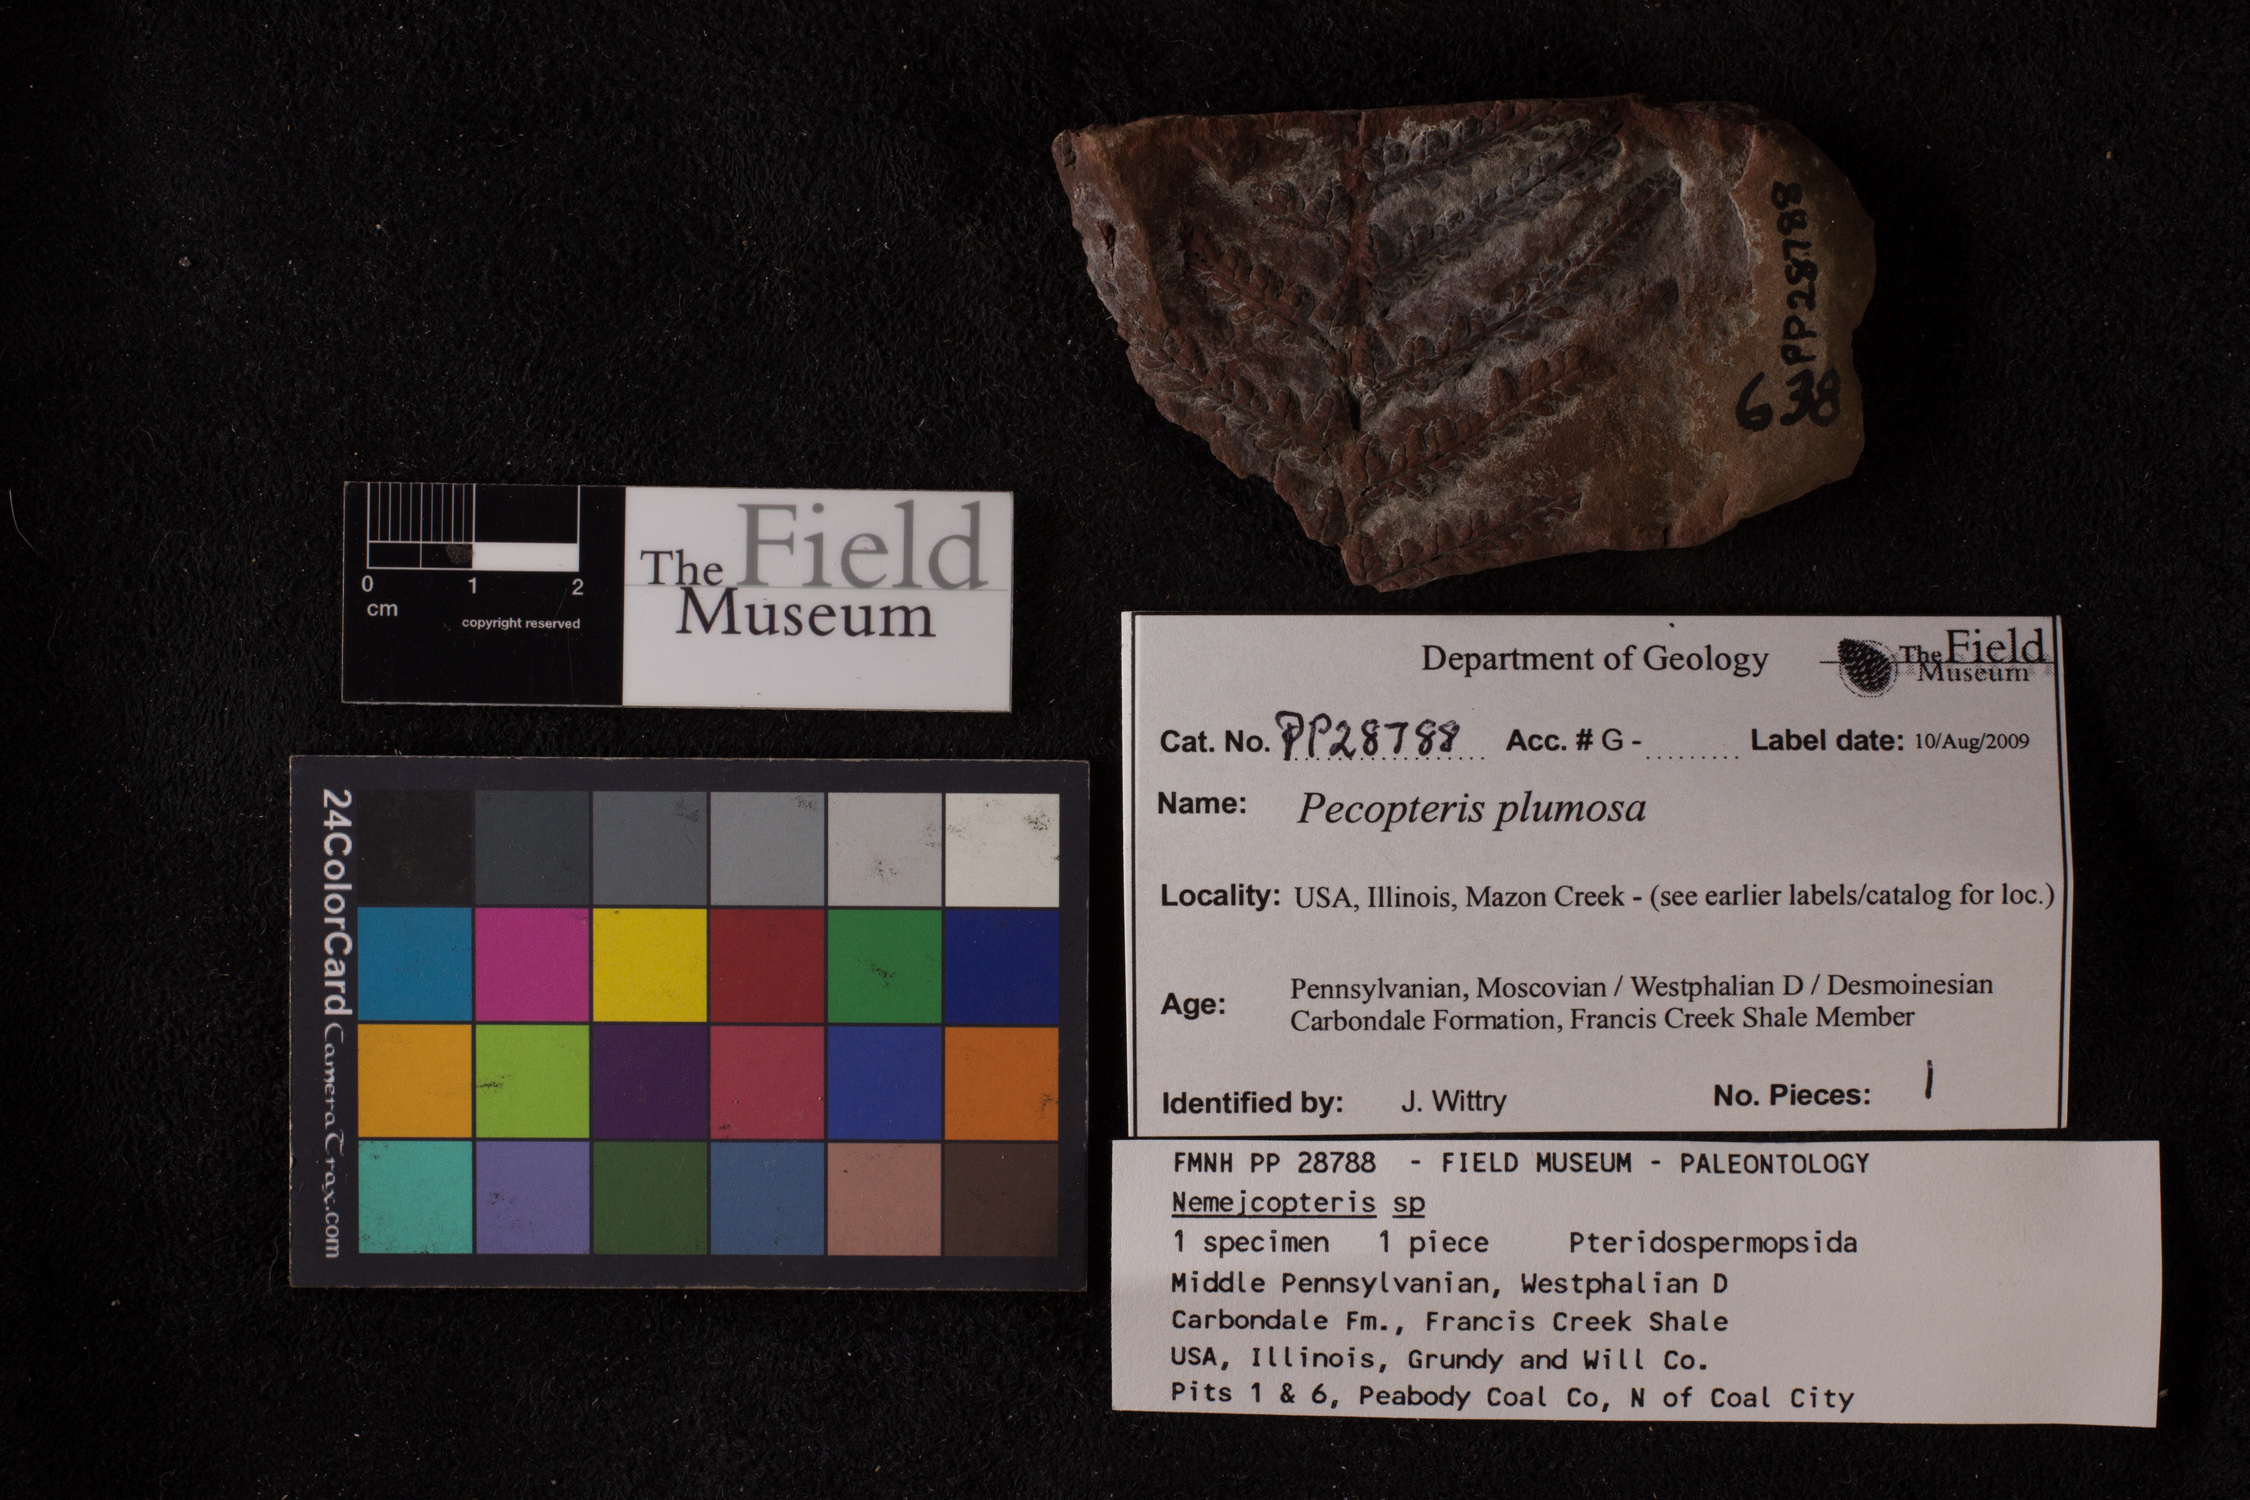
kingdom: Plantae
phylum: Tracheophyta
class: Polypodiopsida
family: Tedeleaceae
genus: Senftenbergia
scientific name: Senftenbergia
